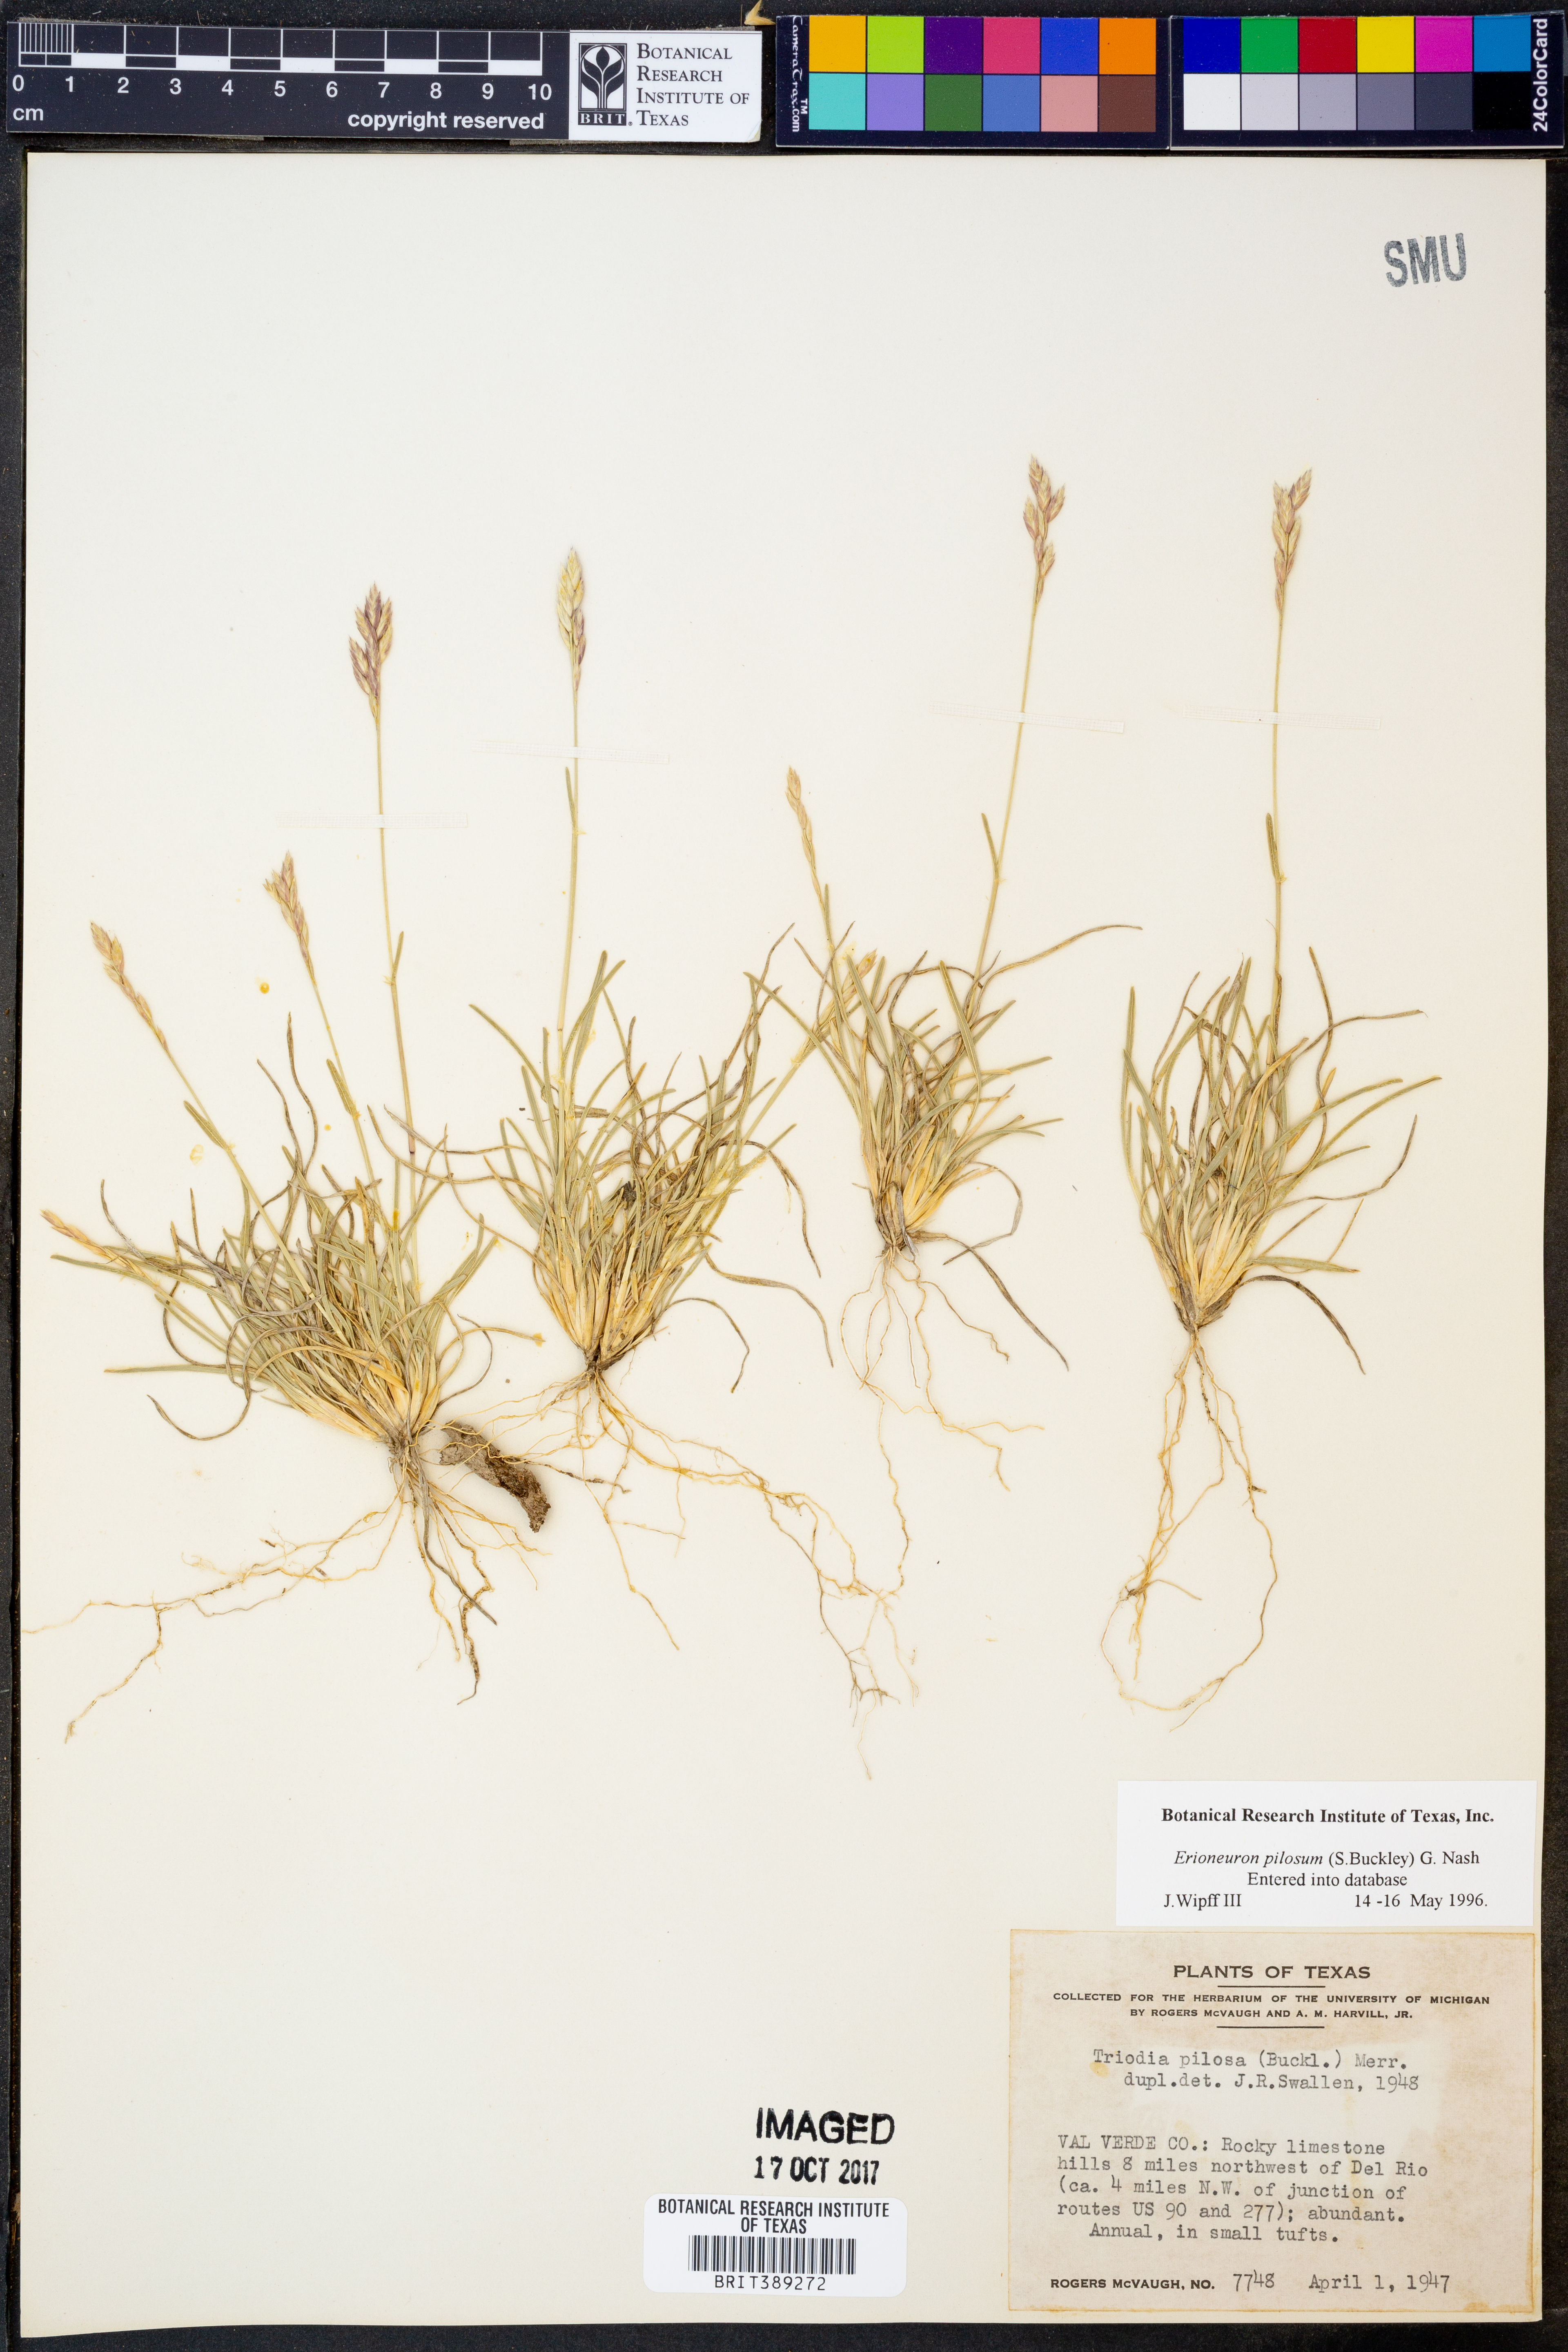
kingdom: Plantae
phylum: Tracheophyta
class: Liliopsida
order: Poales
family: Poaceae
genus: Erioneuron
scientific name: Erioneuron pilosum
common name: Hairy woolly grass
